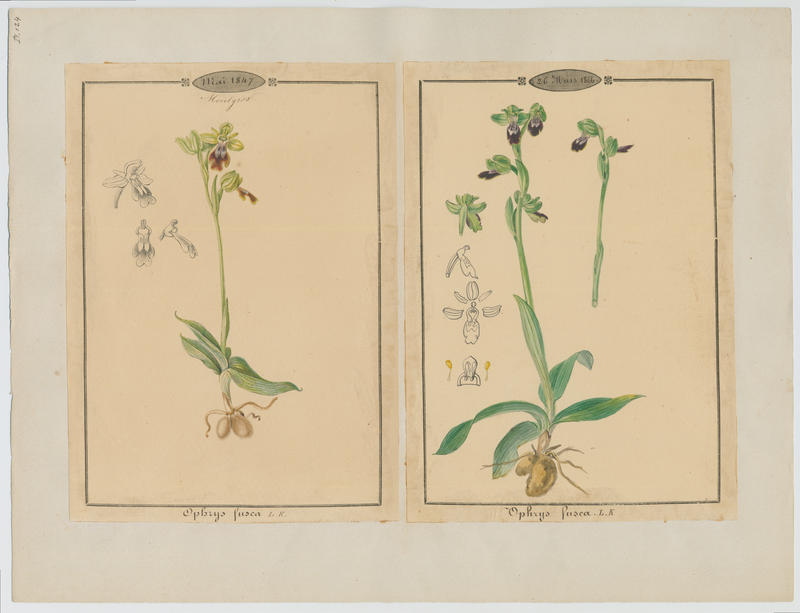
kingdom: Plantae
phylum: Tracheophyta
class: Liliopsida
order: Asparagales
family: Orchidaceae
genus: Ophrys
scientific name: Ophrys fusca
